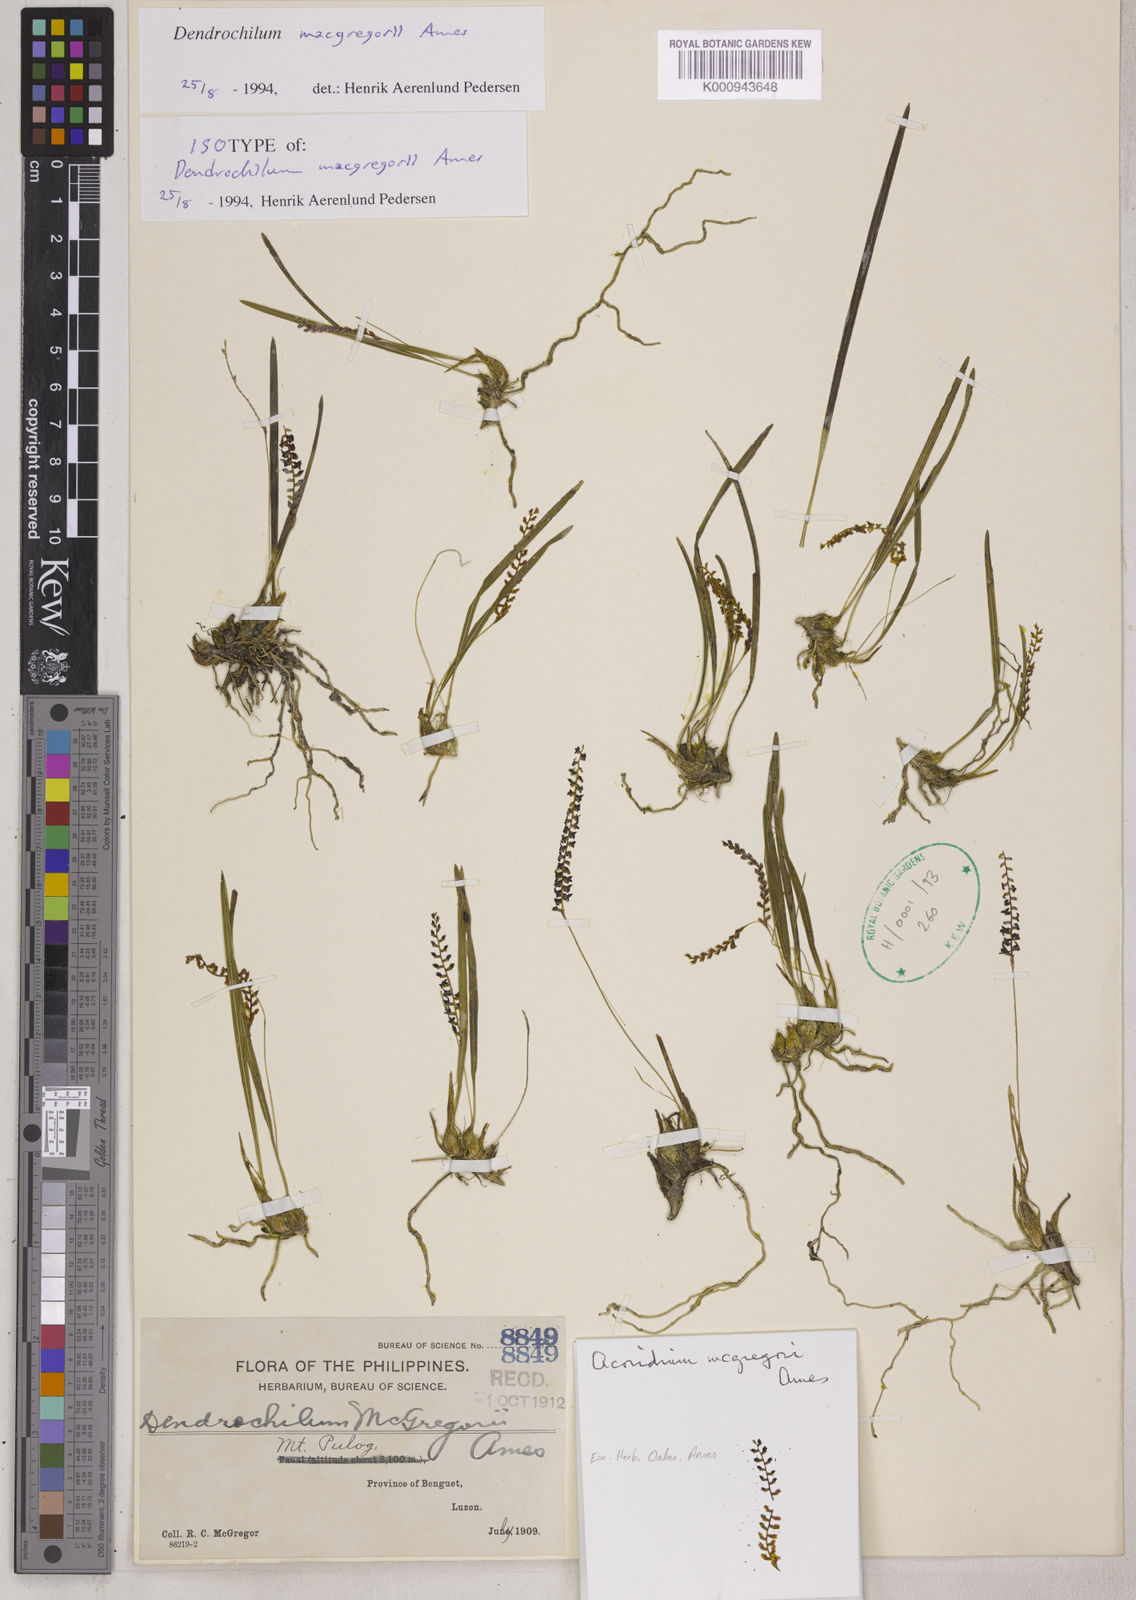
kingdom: Plantae
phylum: Tracheophyta
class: Liliopsida
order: Asparagales
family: Orchidaceae
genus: Coelogyne
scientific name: Coelogyne macgregorii
